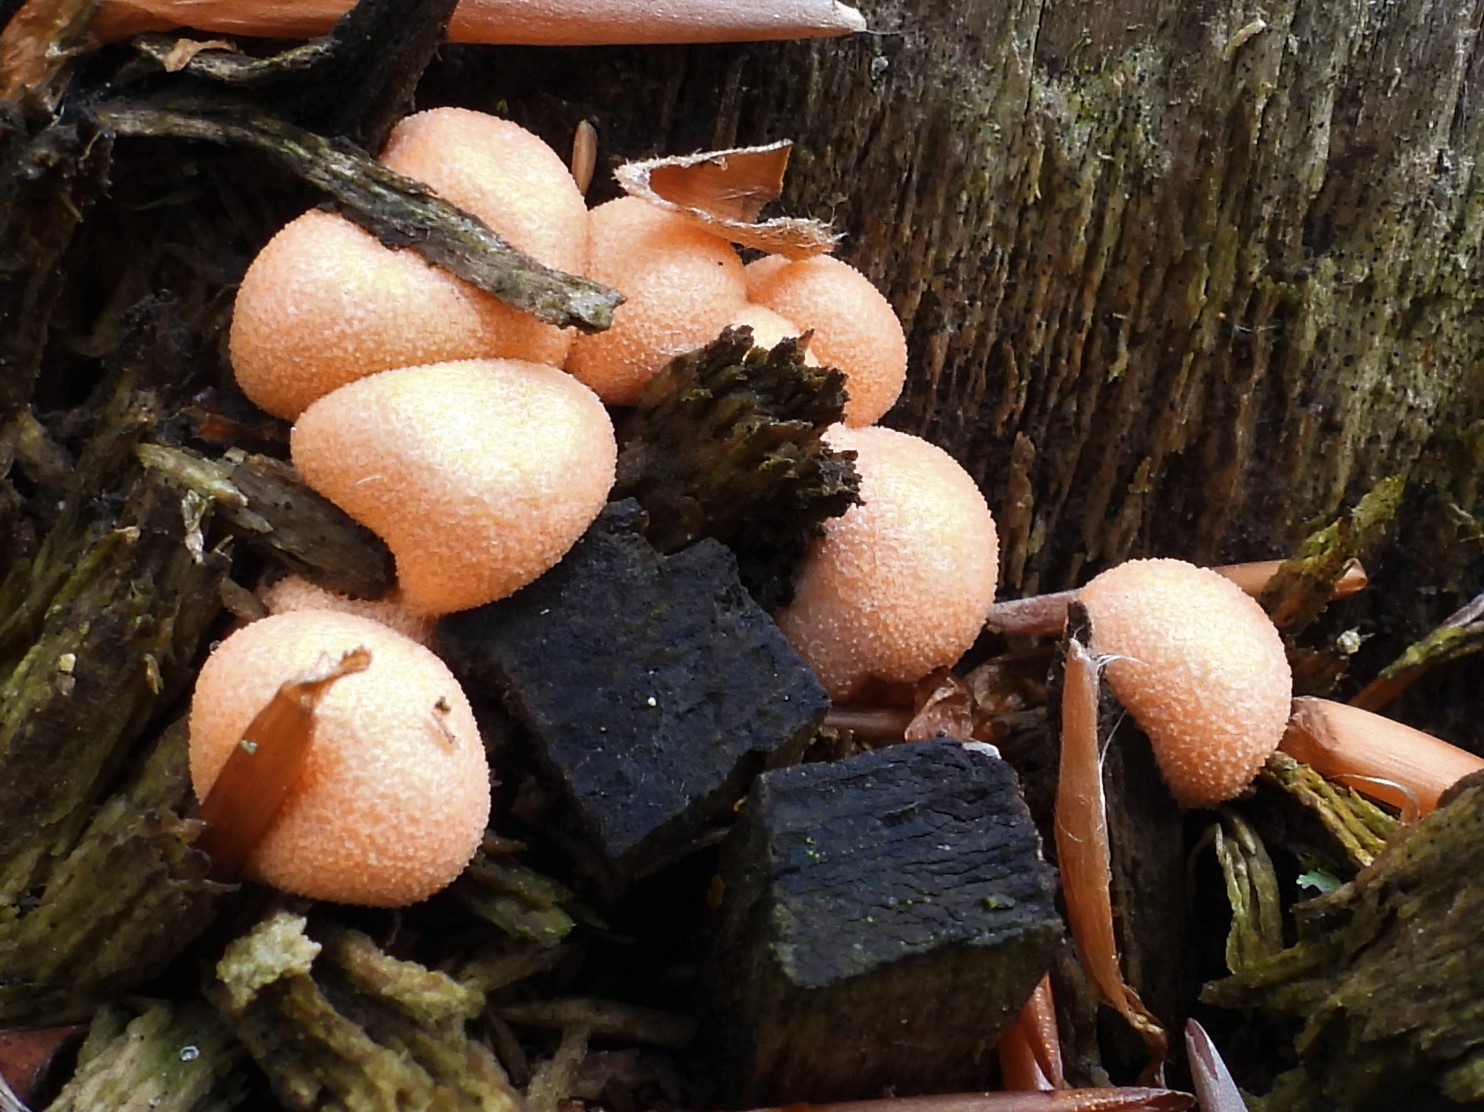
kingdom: Protozoa
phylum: Mycetozoa
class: Myxomycetes
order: Cribrariales
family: Tubiferaceae
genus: Lycogala
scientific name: Lycogala epidendrum
